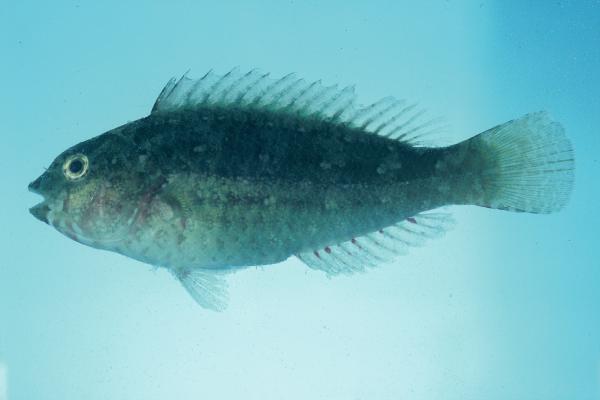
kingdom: Animalia
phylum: Chordata
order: Perciformes
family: Scaridae
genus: Leptoscarus
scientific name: Leptoscarus vaigiensis
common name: Marbled parrotfish
